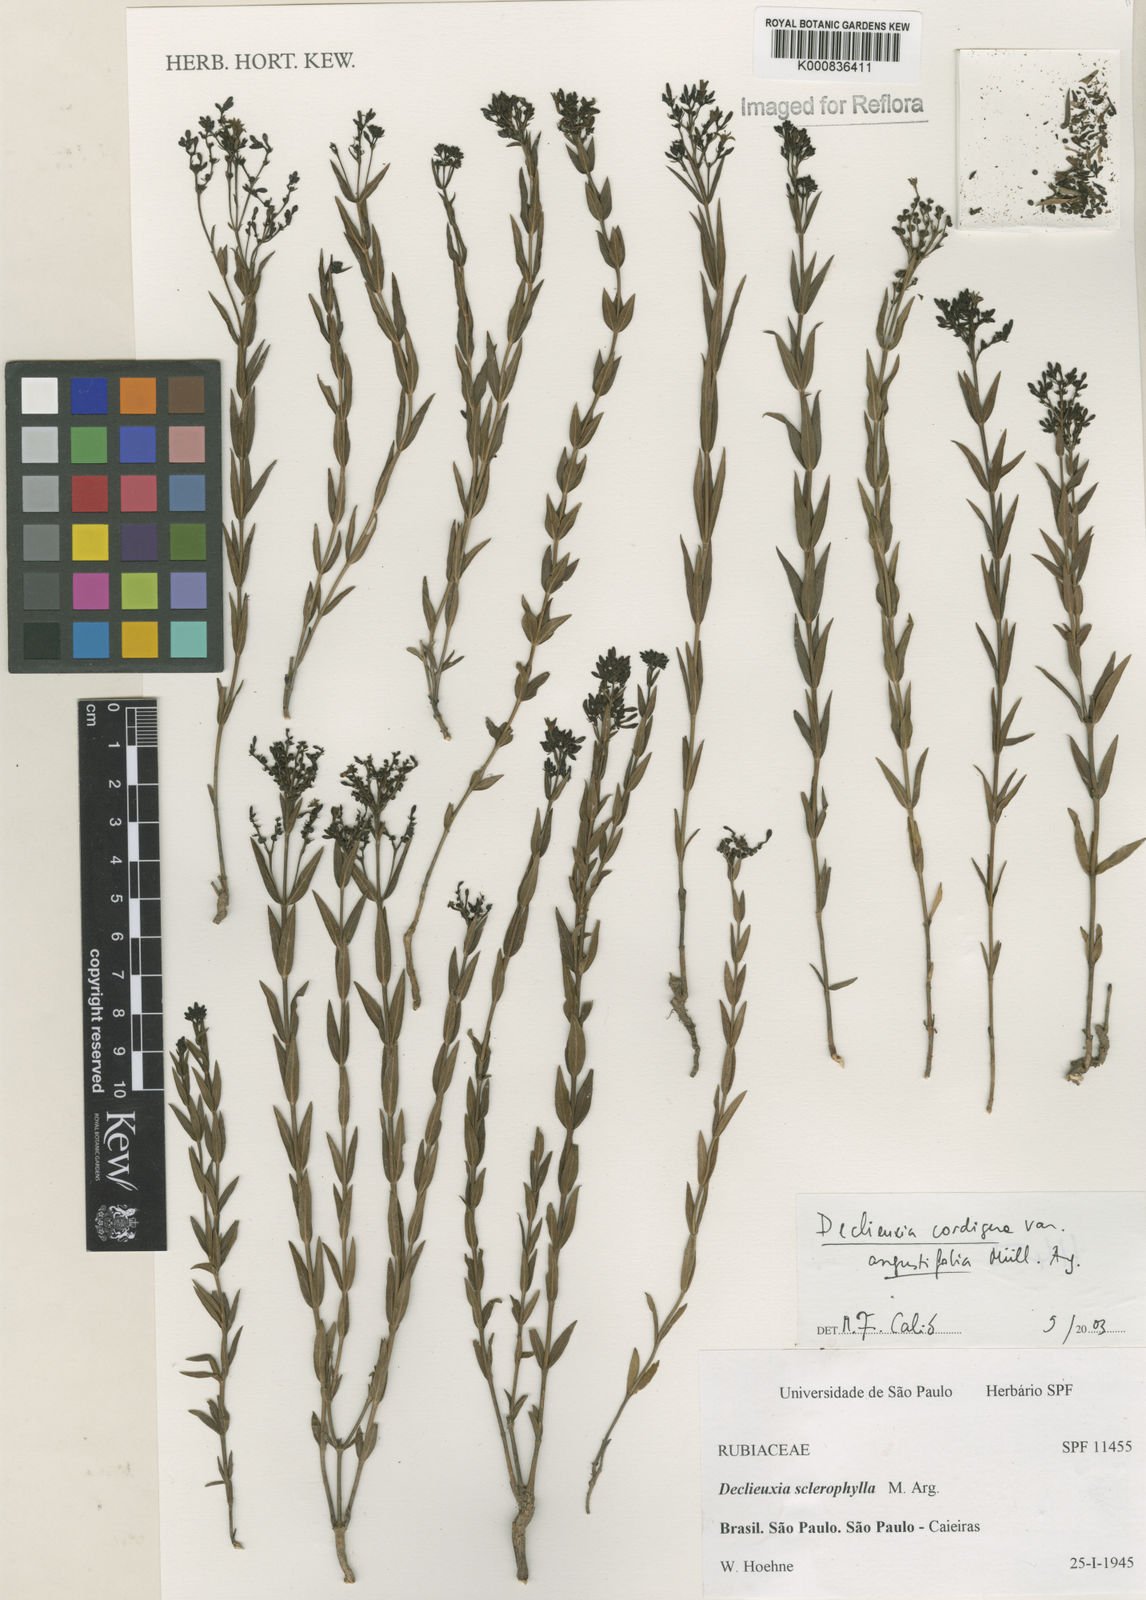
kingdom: Plantae
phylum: Tracheophyta
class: Magnoliopsida
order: Gentianales
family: Rubiaceae
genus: Declieuxia
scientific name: Declieuxia
